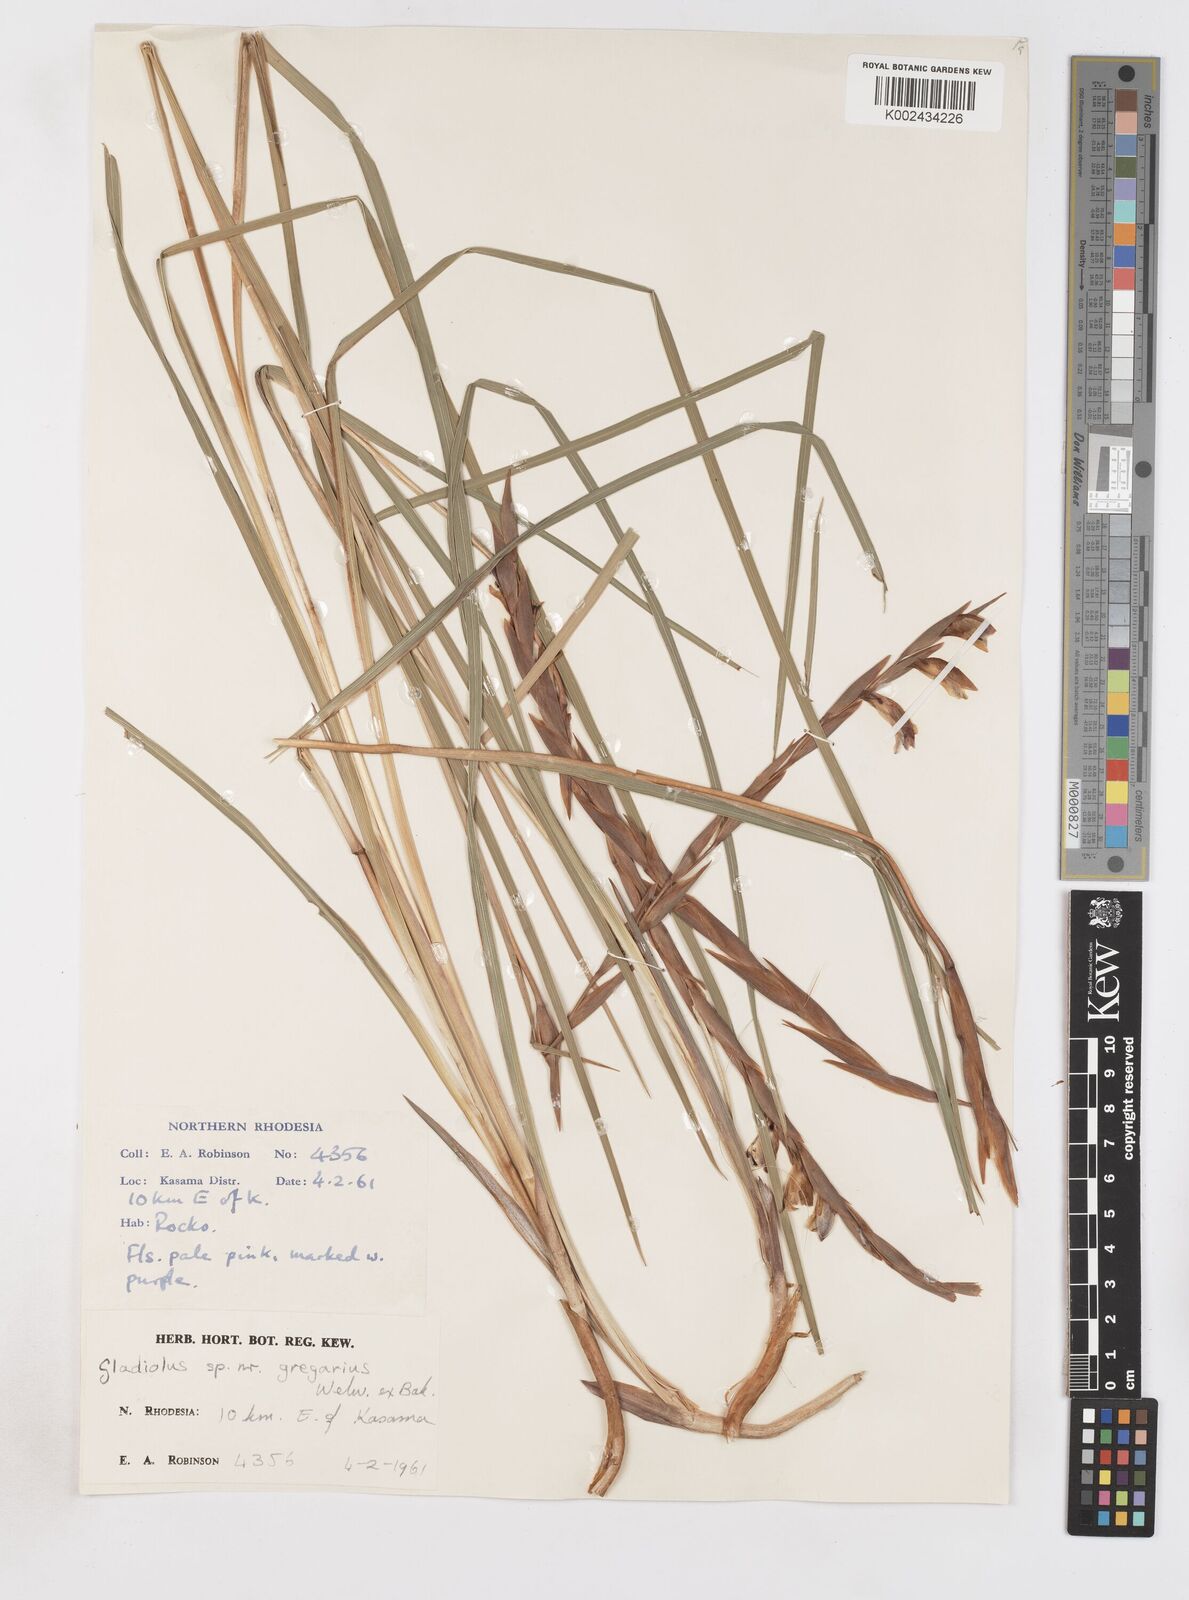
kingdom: Plantae
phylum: Tracheophyta
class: Liliopsida
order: Asparagales
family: Iridaceae
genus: Gladiolus
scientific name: Gladiolus gregarius
